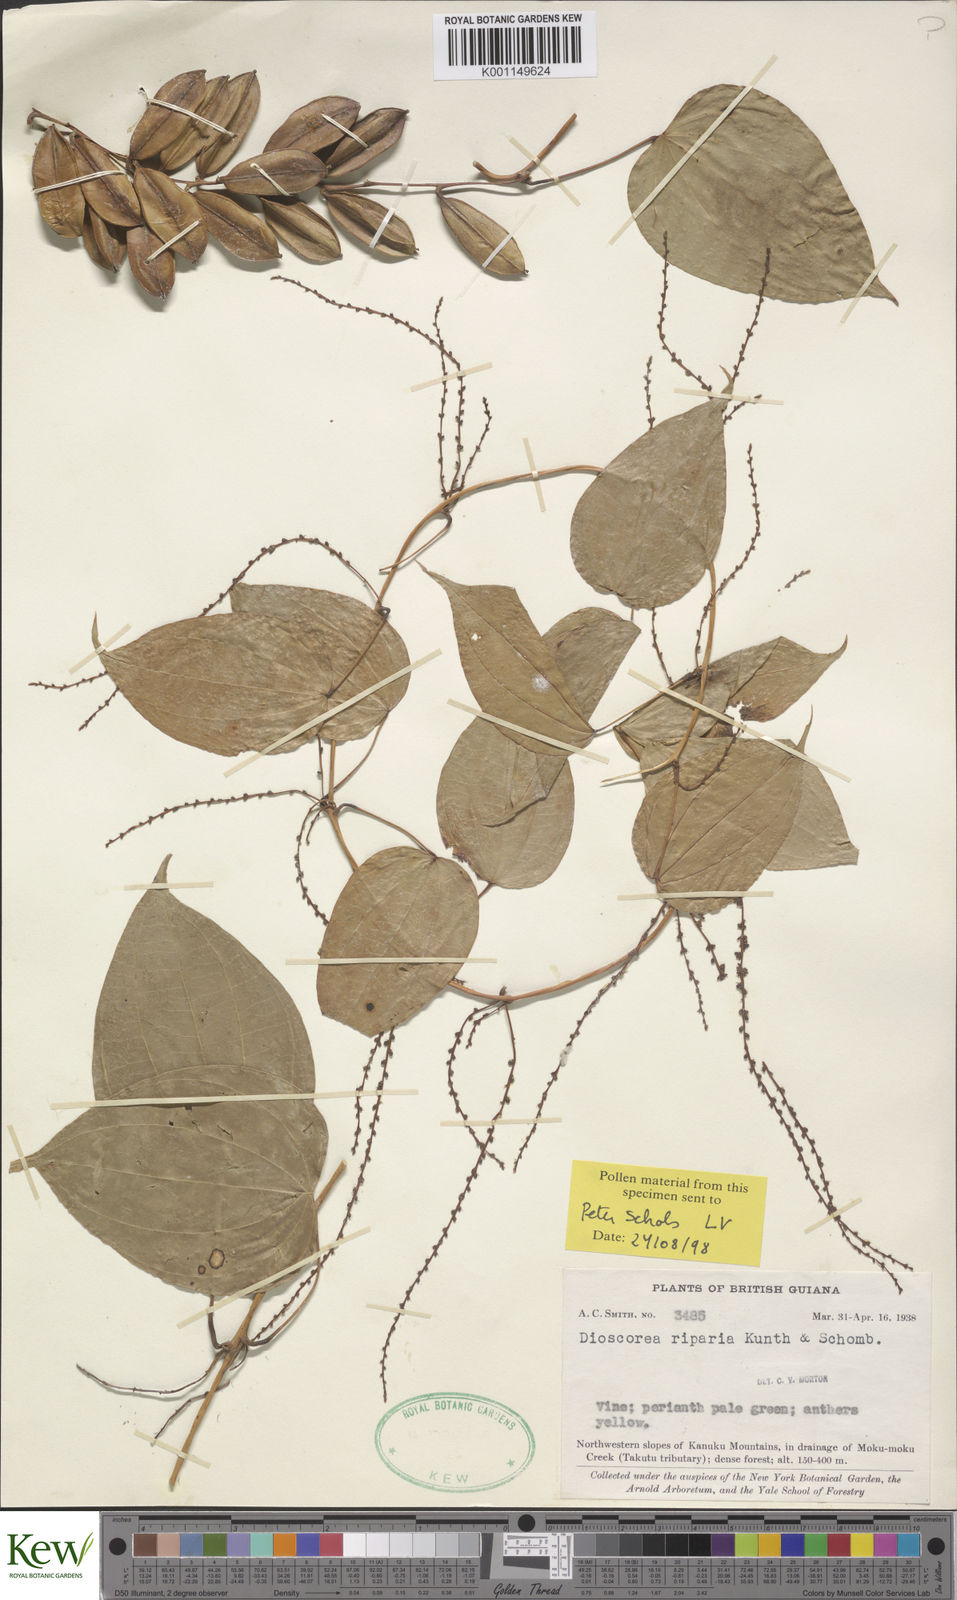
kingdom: Plantae
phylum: Tracheophyta
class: Liliopsida
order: Dioscoreales
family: Dioscoreaceae
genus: Dioscorea
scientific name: Dioscorea chondrocarpa
